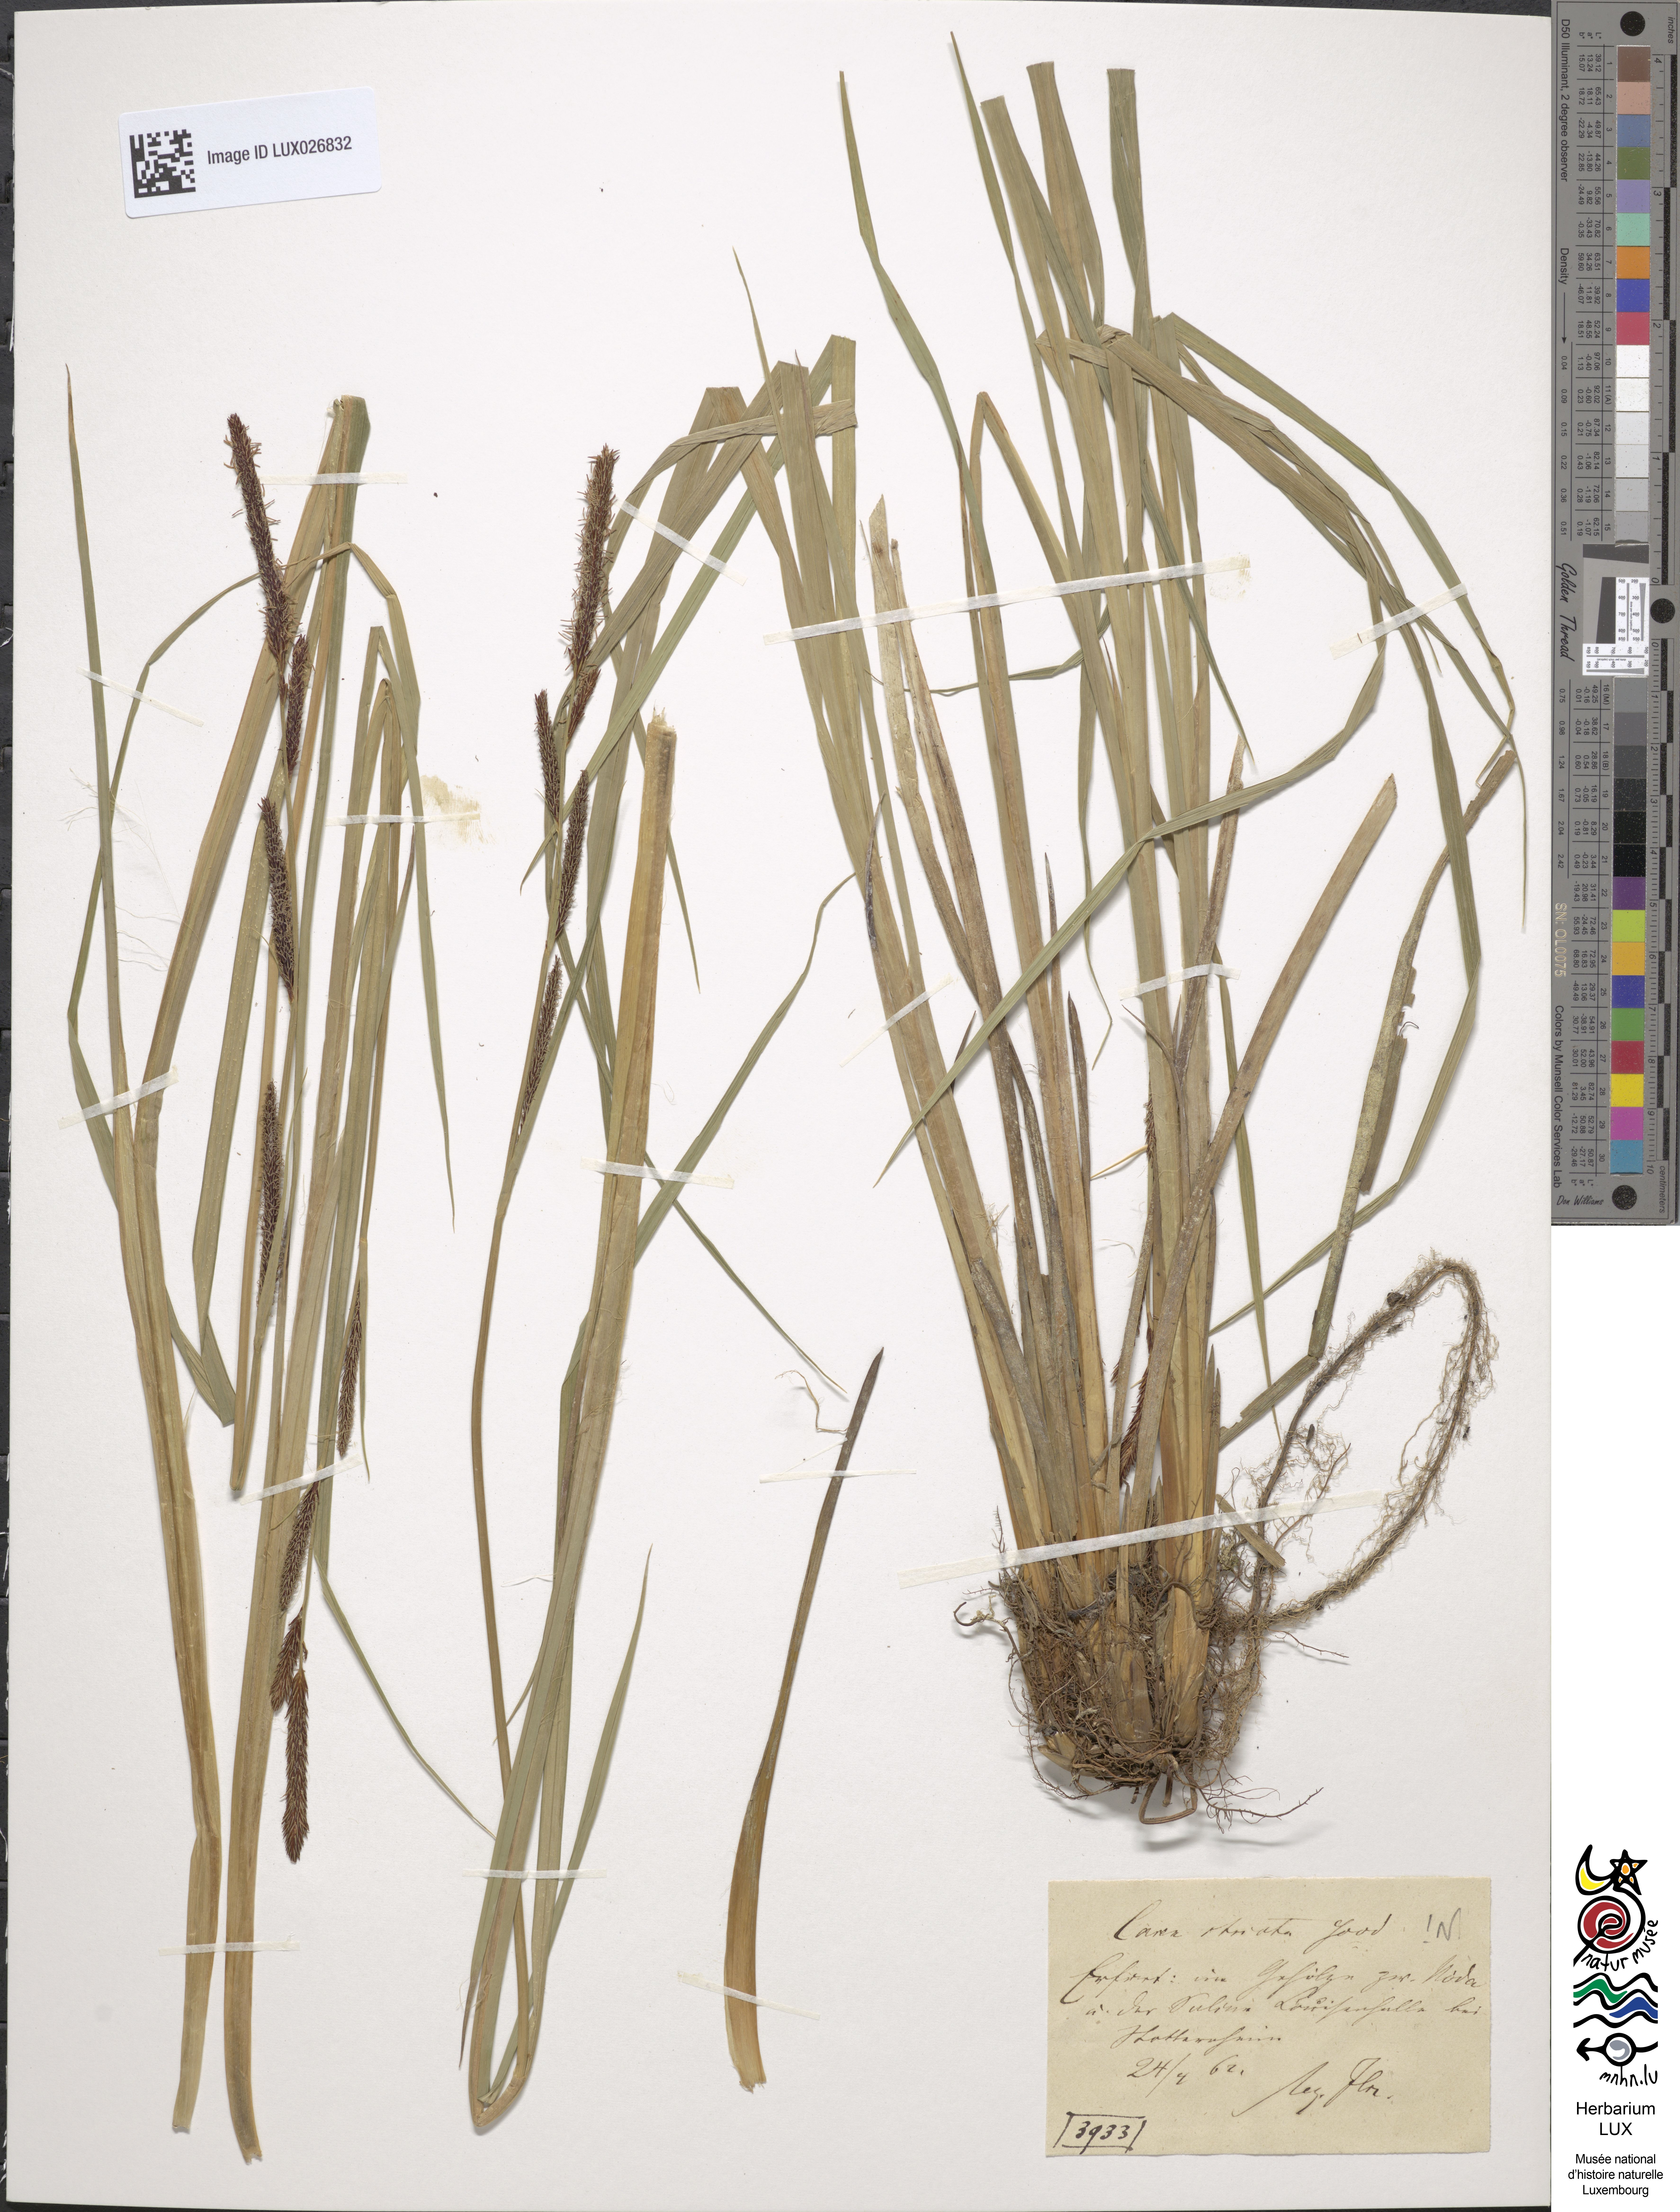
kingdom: Plantae
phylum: Tracheophyta
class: Liliopsida
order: Poales
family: Cyperaceae
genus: Carex
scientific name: Carex elata
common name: Tufted sedge
